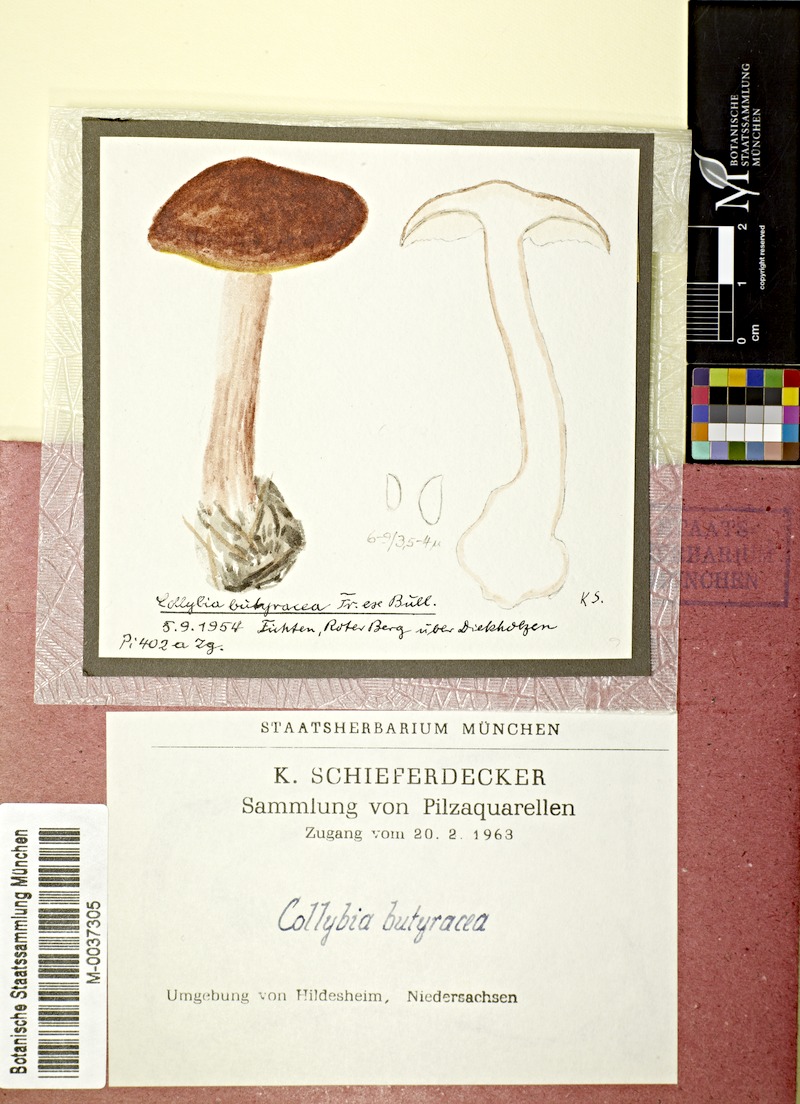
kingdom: Fungi
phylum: Basidiomycota
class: Agaricomycetes
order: Agaricales
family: Omphalotaceae
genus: Rhodocollybia
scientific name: Rhodocollybia butyracea
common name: Butter cap
